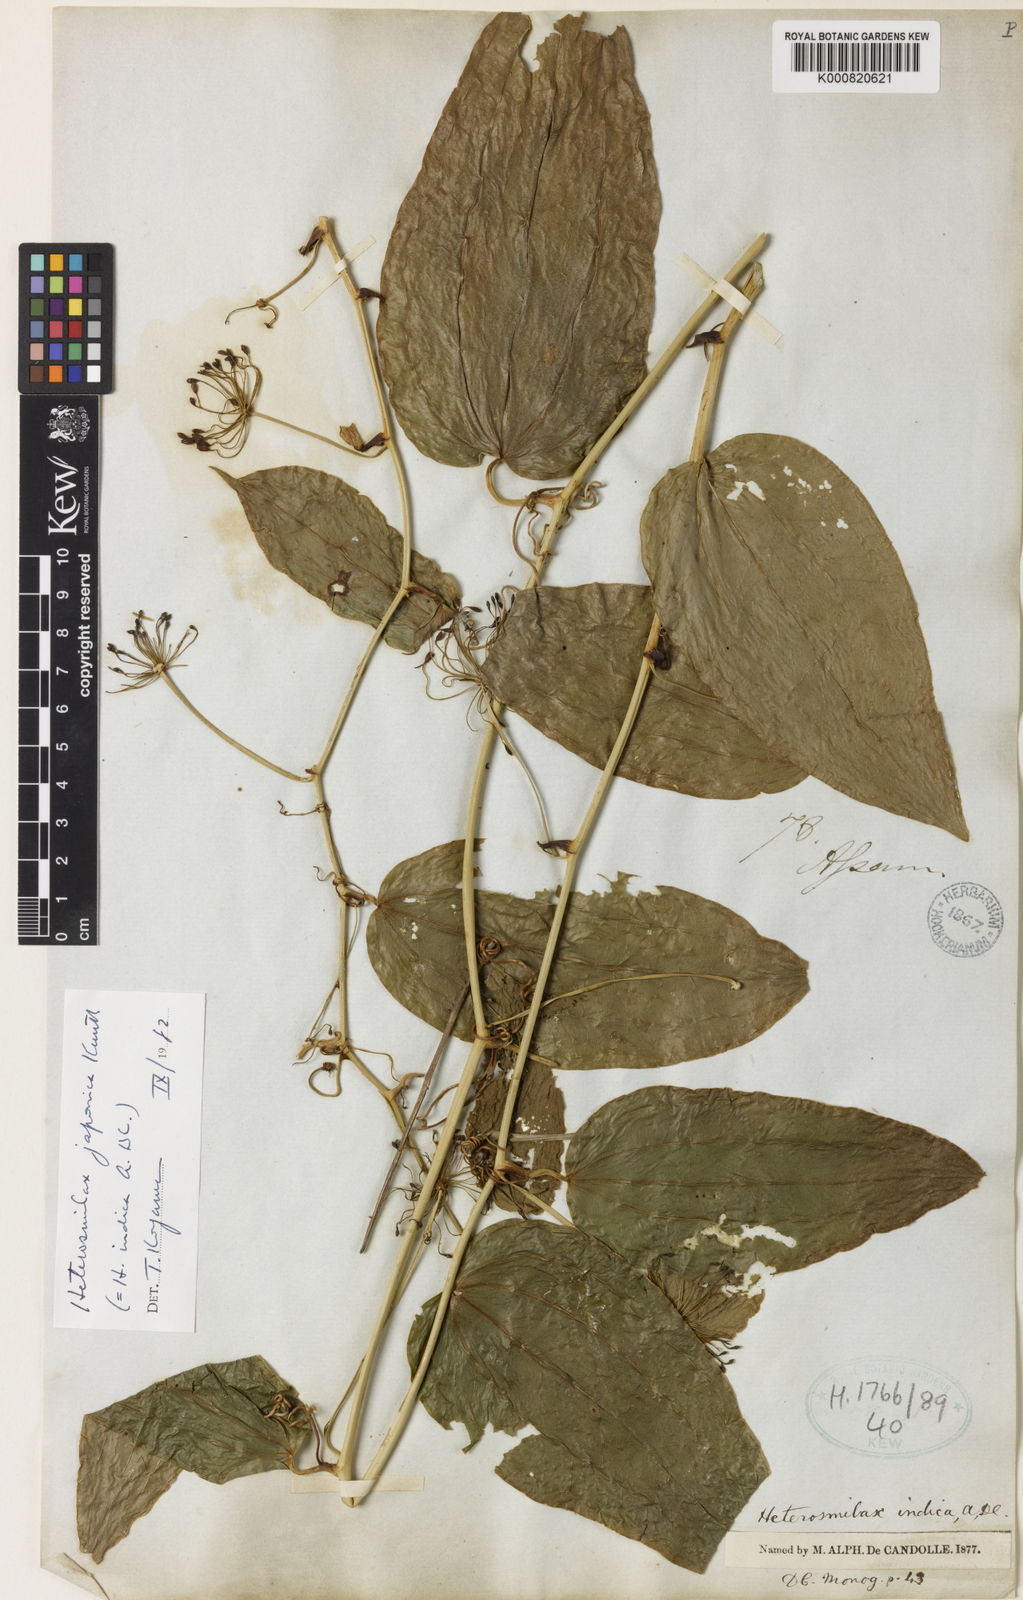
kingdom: Plantae
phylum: Tracheophyta
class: Liliopsida
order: Liliales
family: Smilacaceae
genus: Smilax
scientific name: Smilax bockii
